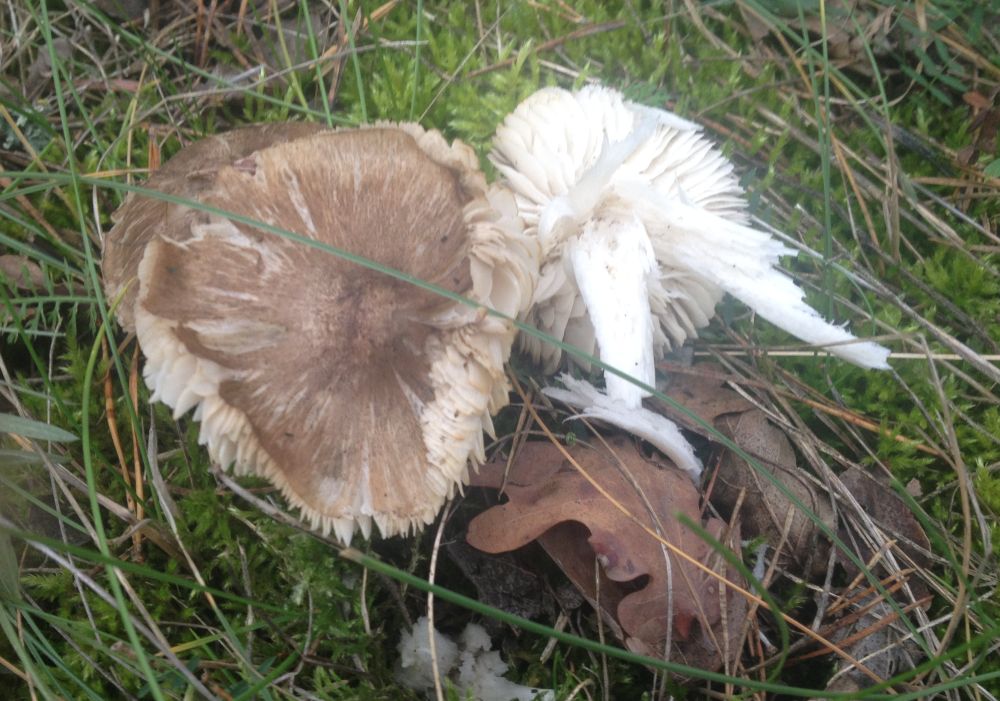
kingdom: Fungi
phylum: Basidiomycota
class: Agaricomycetes
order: Agaricales
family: Tricholomataceae
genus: Tricholoma
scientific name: Tricholoma
